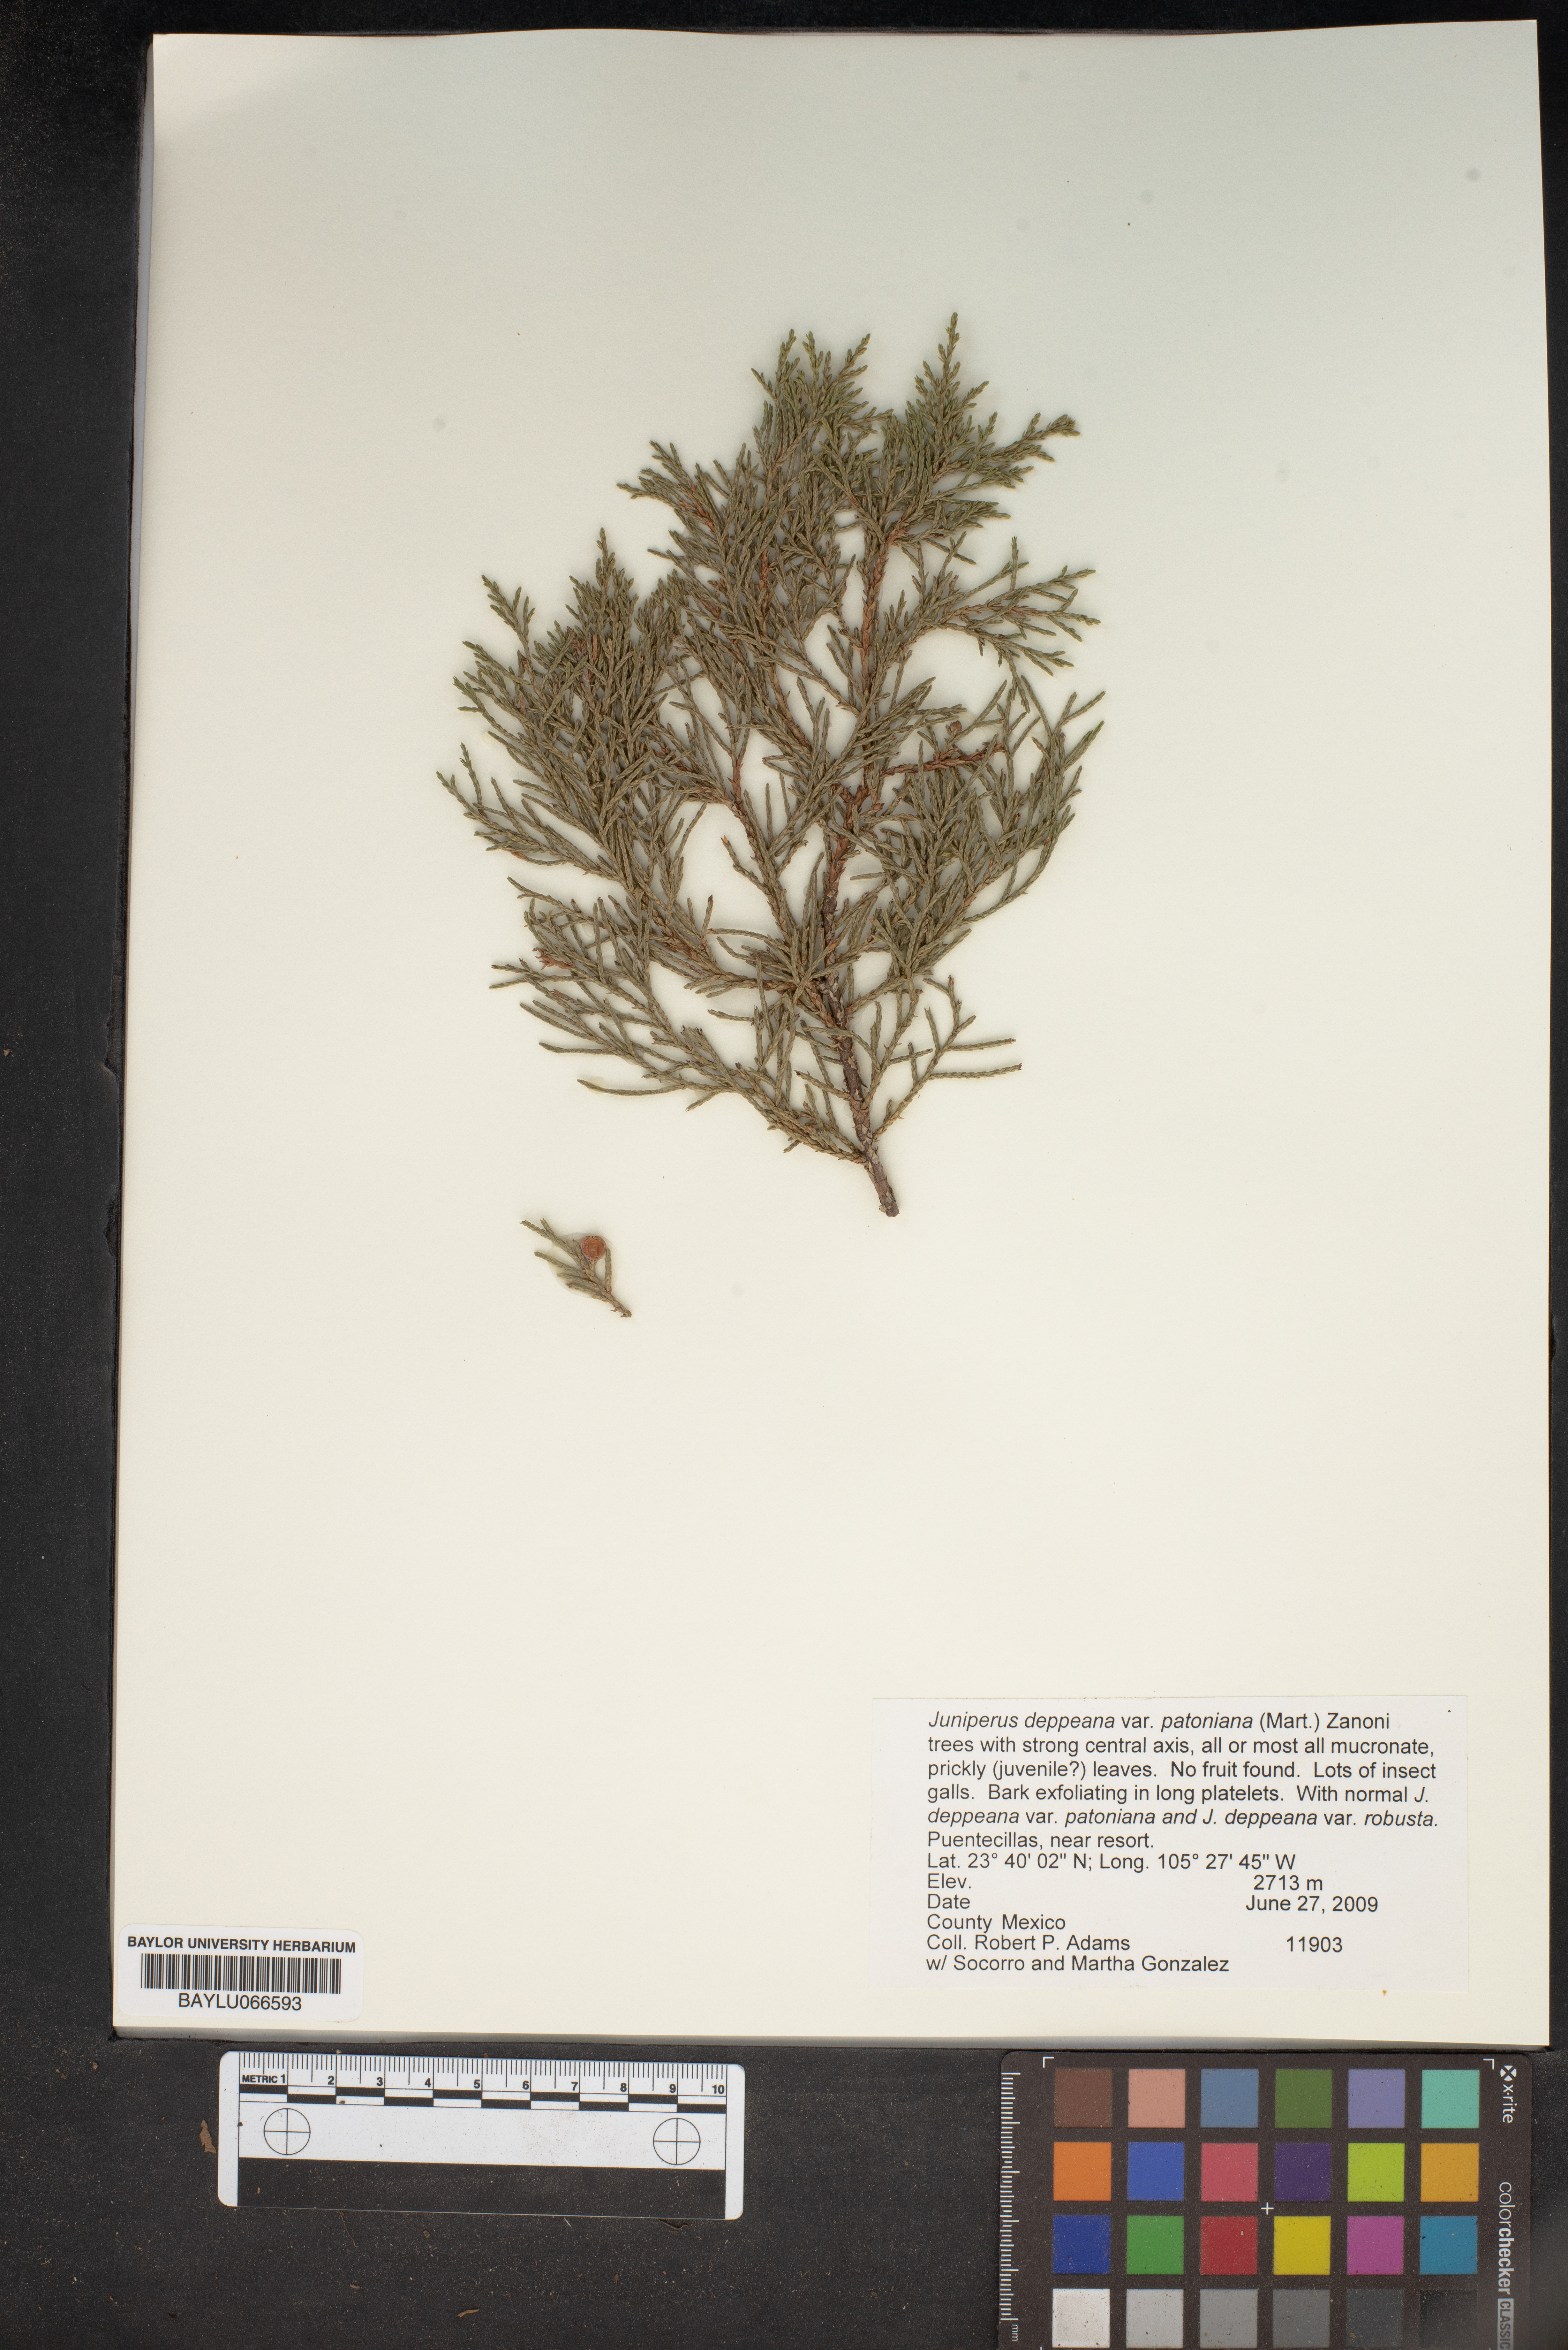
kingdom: Plantae
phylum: Tracheophyta
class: Pinopsida
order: Pinales
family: Cupressaceae
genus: Juniperus
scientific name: Juniperus deppeana
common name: Alligator juniper
